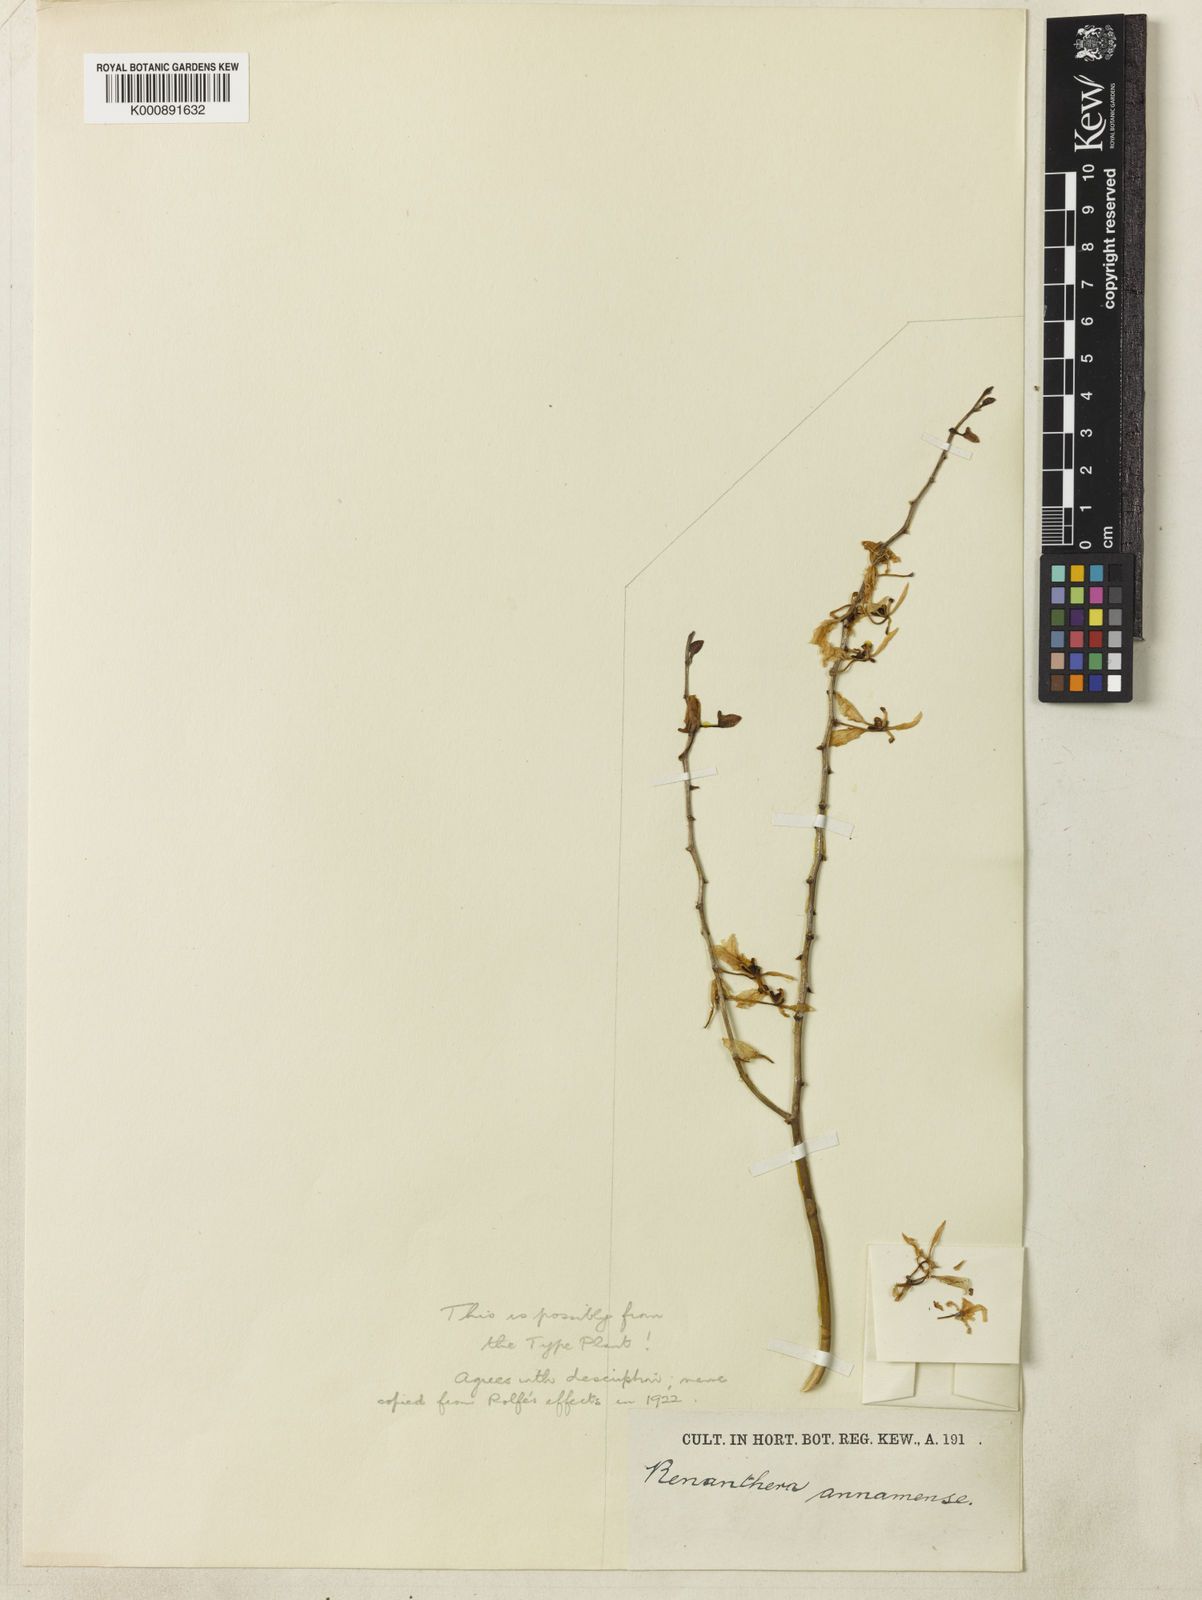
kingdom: Plantae
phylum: Tracheophyta
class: Liliopsida
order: Asparagales
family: Orchidaceae
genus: Renanthera
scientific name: Renanthera annamensis
